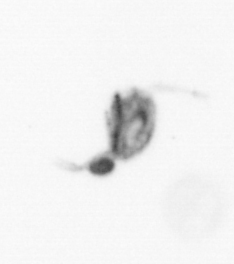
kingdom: Animalia
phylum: Arthropoda
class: Copepoda
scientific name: Copepoda
